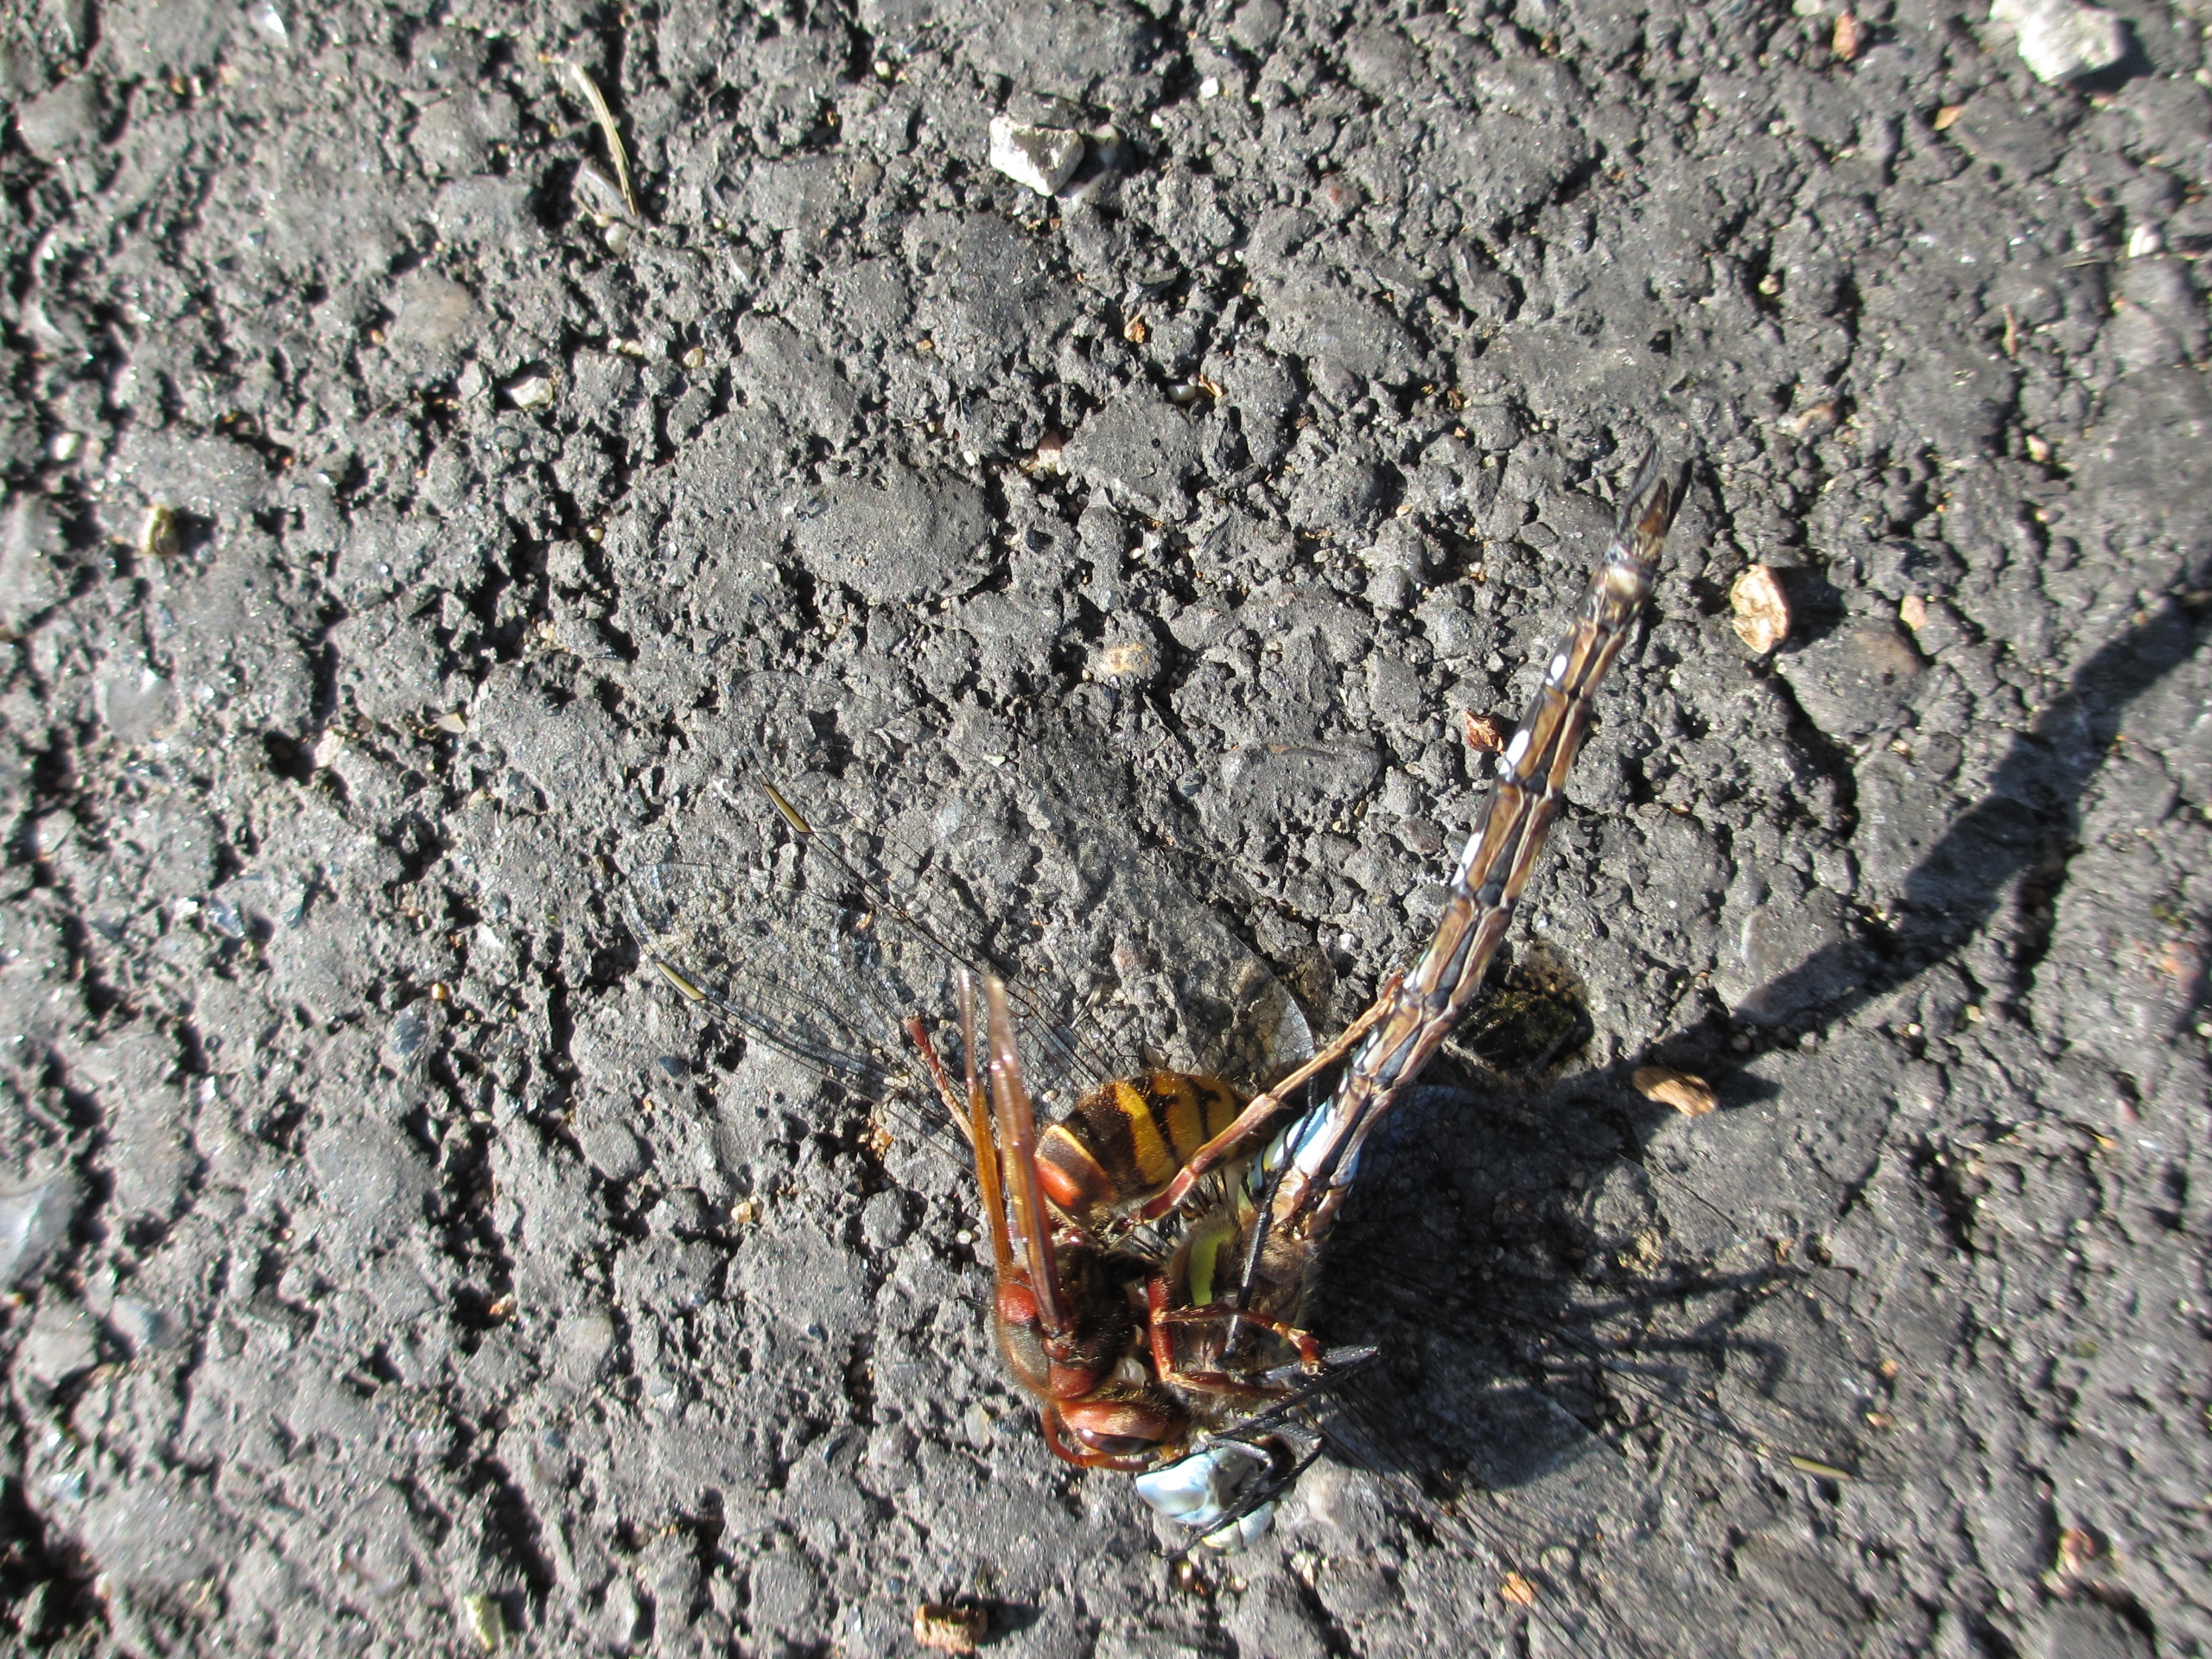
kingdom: Animalia
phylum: Arthropoda
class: Insecta
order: Hymenoptera
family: Vespidae
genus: Vespa
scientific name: Vespa crabro
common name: Stor gedehams
